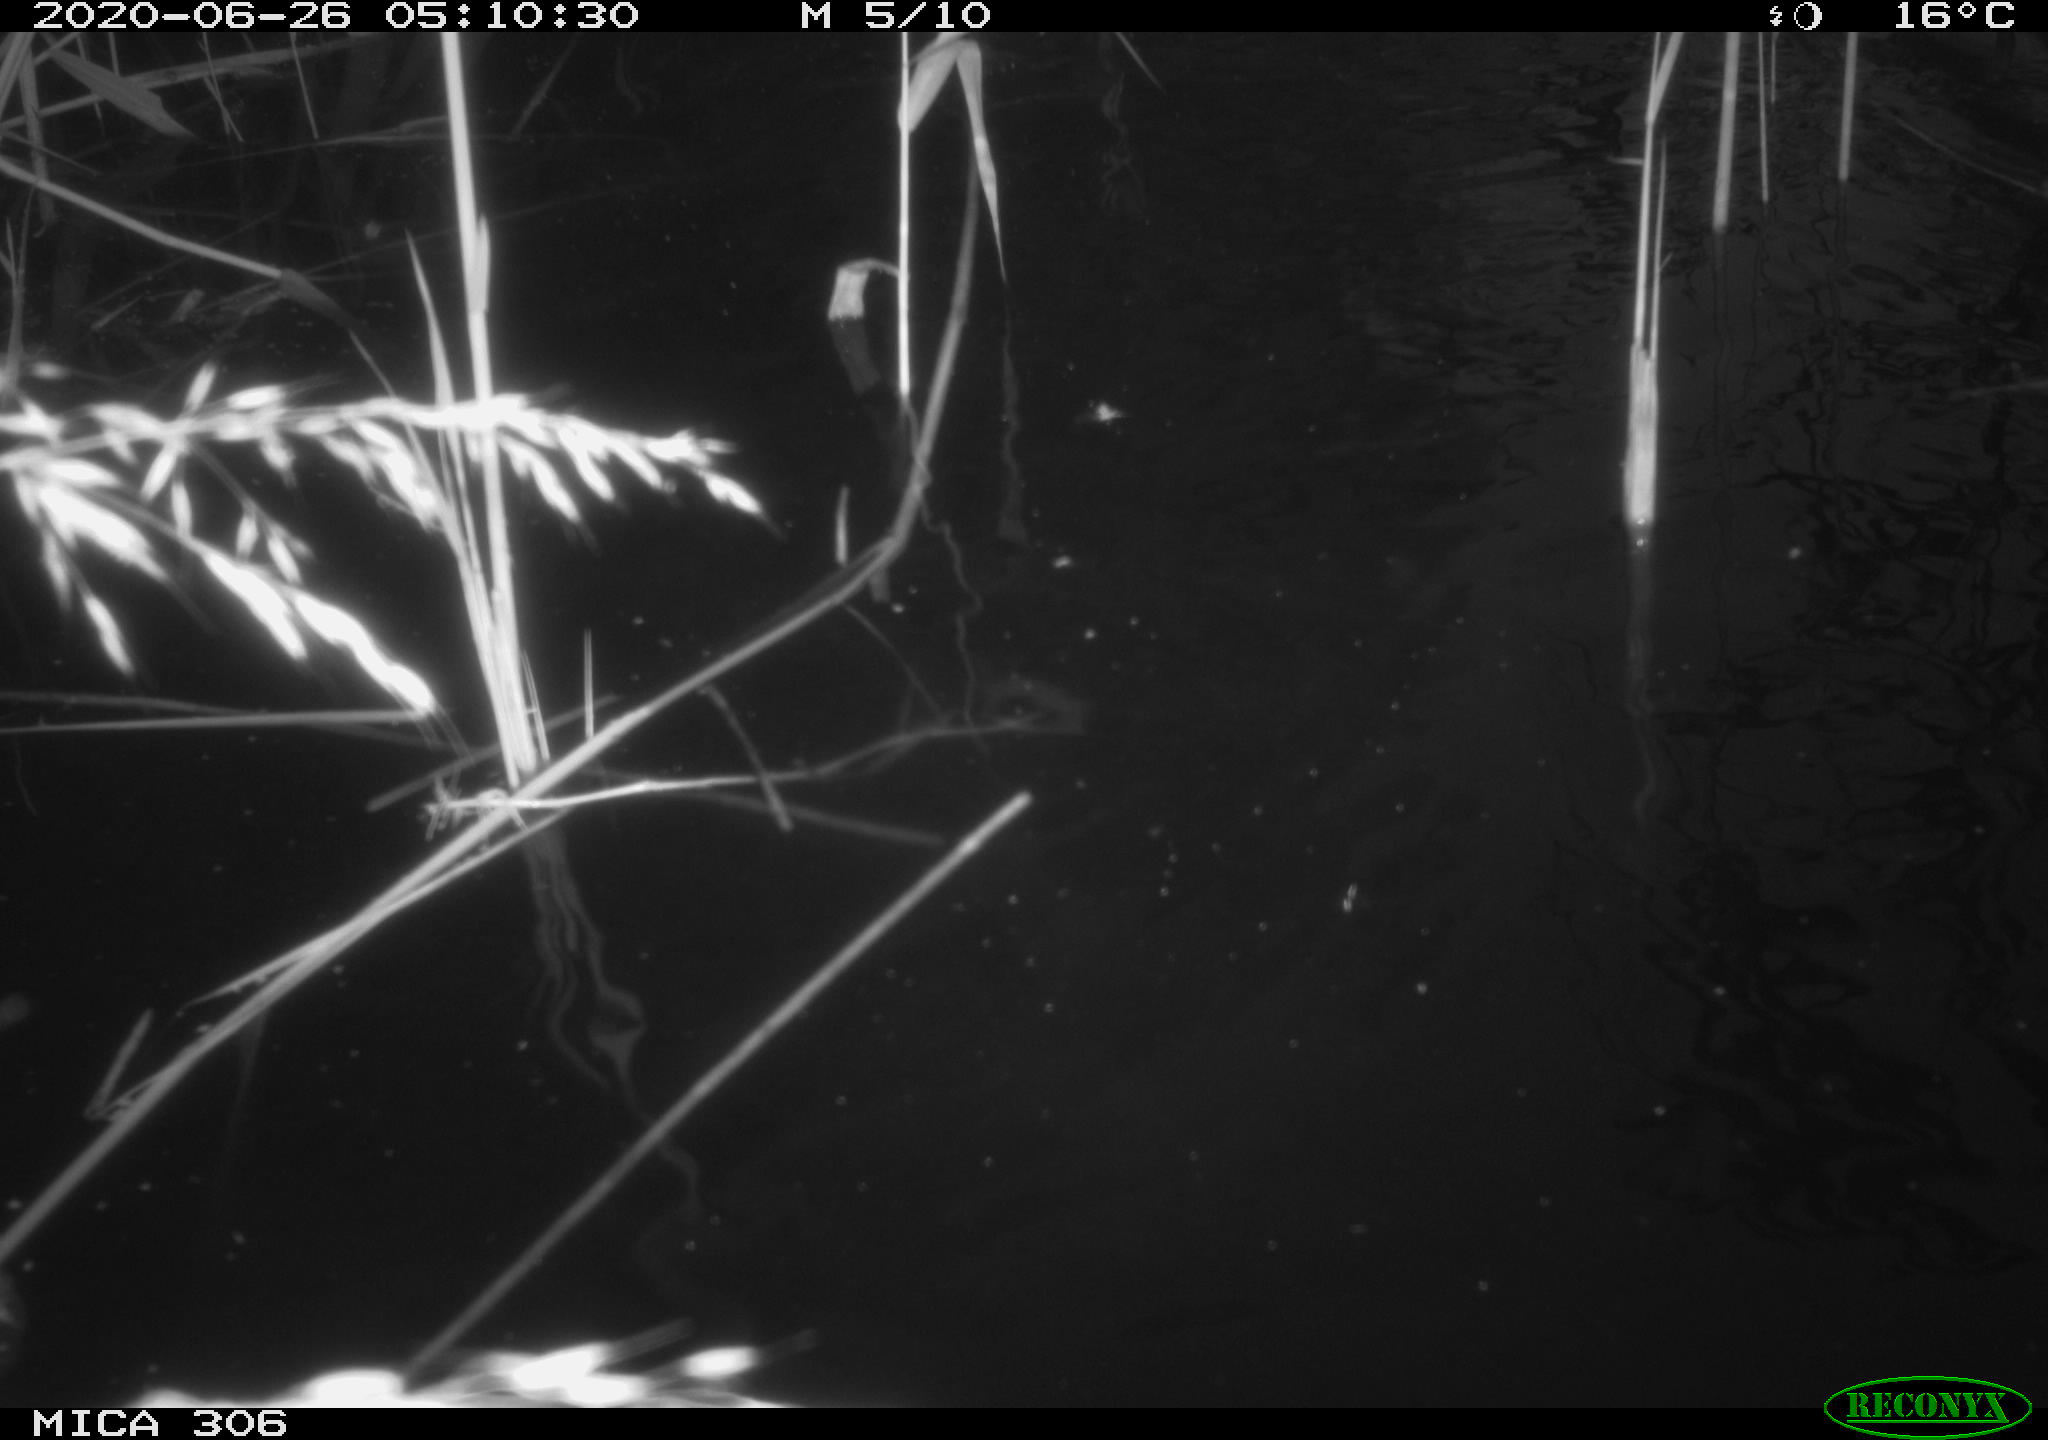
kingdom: Animalia
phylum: Chordata
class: Mammalia
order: Rodentia
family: Muridae
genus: Rattus
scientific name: Rattus norvegicus
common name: Brown rat
